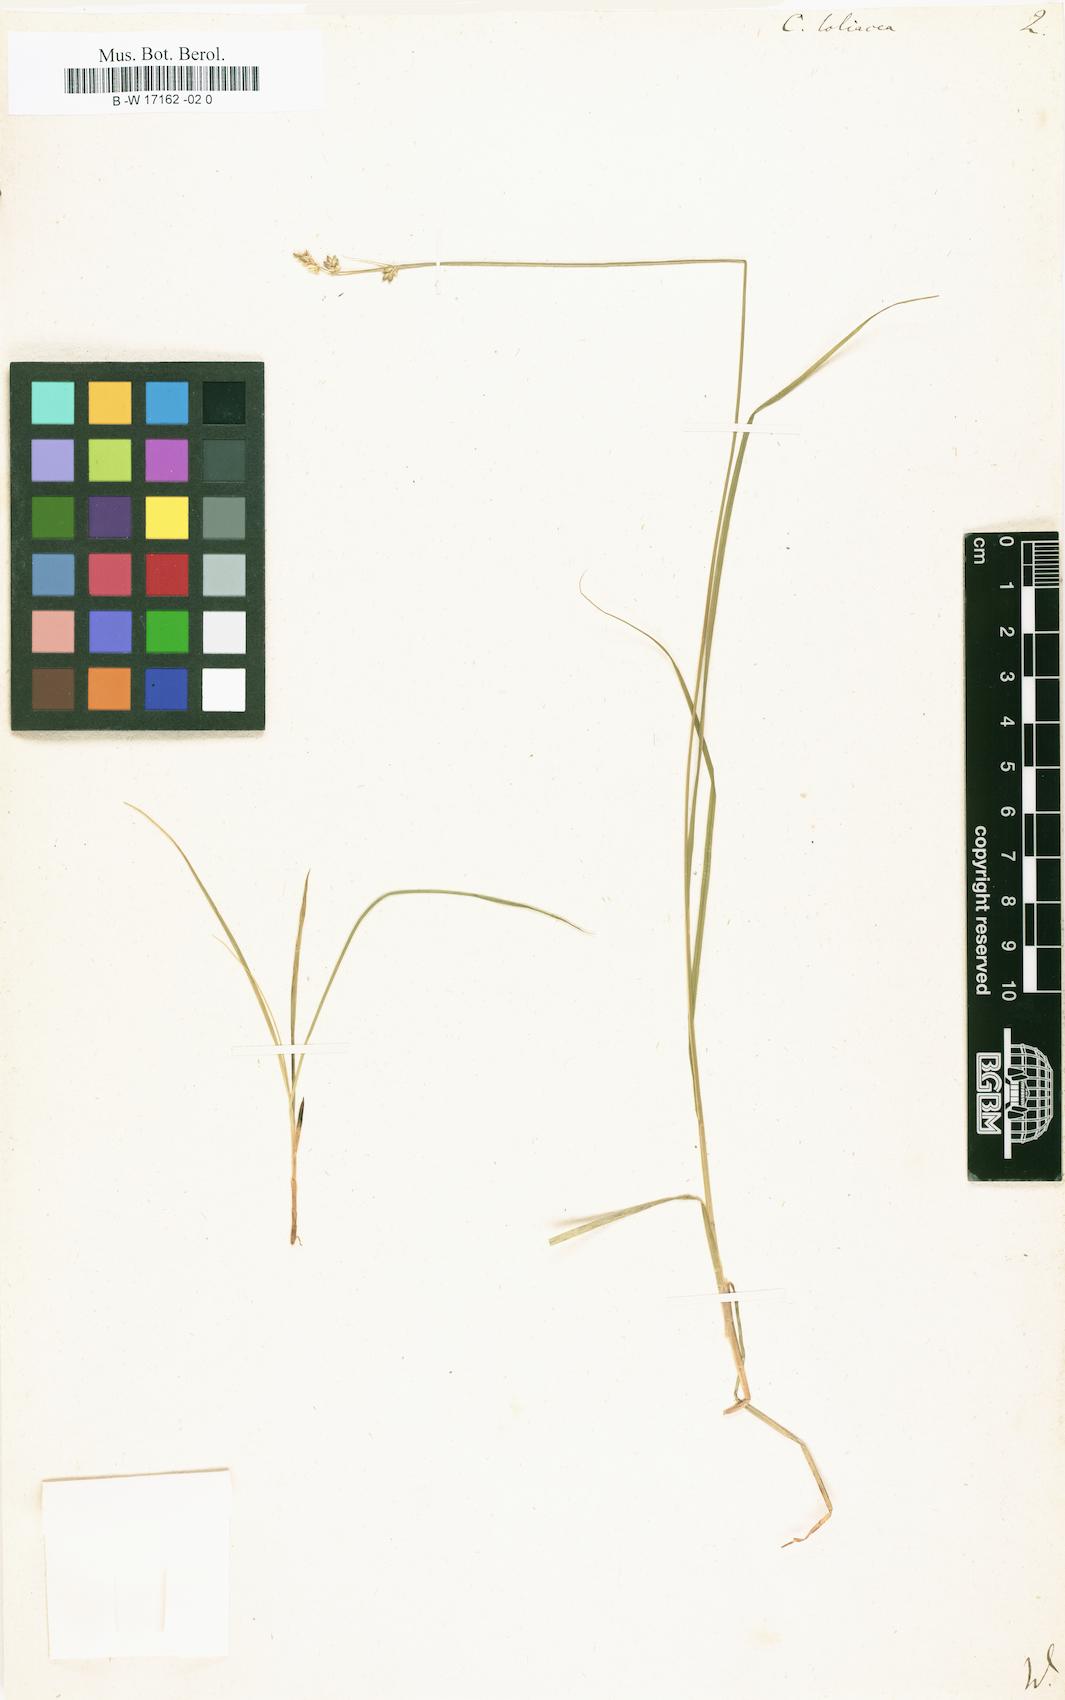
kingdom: Plantae
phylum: Tracheophyta
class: Liliopsida
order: Poales
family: Cyperaceae
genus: Carex
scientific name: Carex loliacea
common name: Ryegrass sedge
